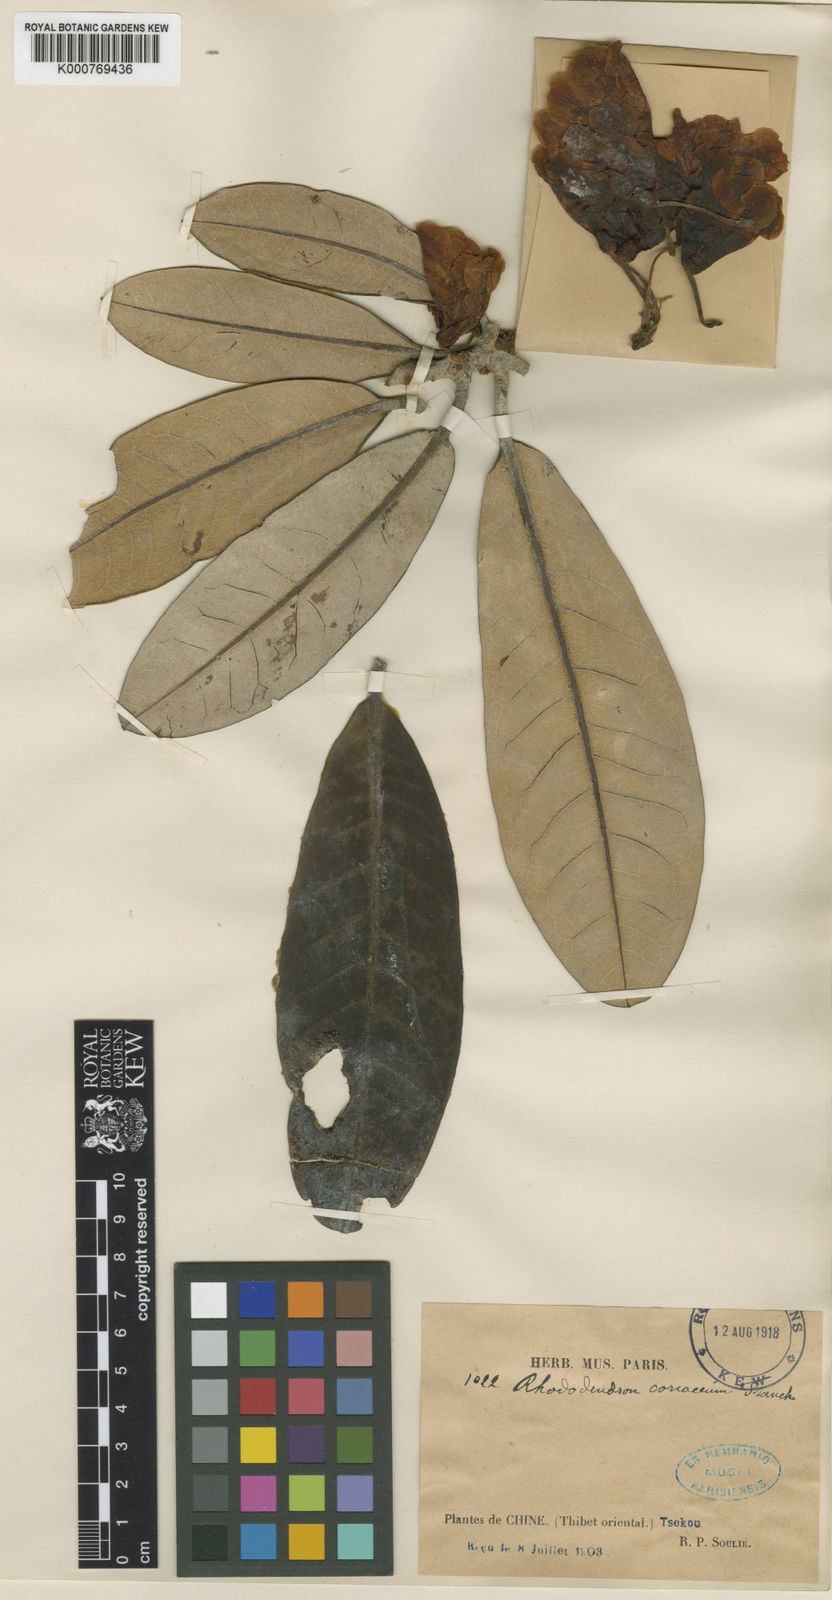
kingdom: Plantae
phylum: Tracheophyta
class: Magnoliopsida
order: Ericales
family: Ericaceae
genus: Rhododendron
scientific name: Rhododendron coriaceum
